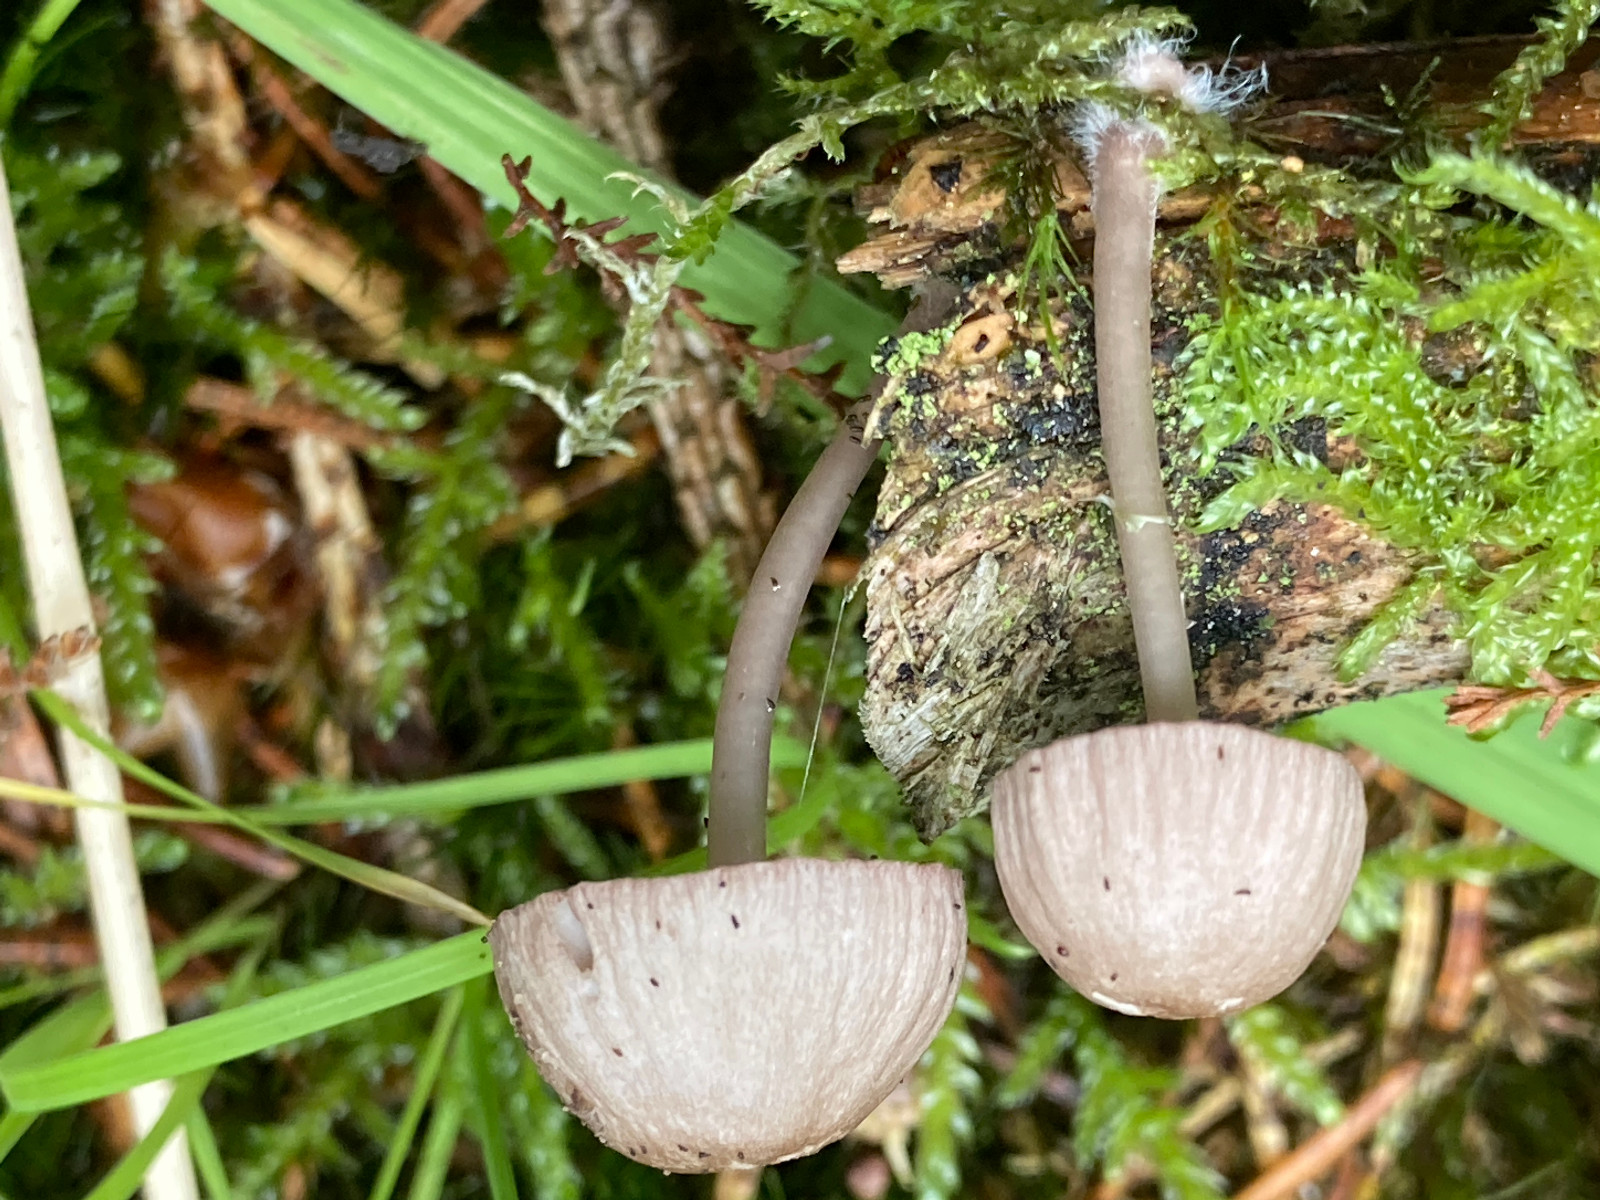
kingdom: Fungi
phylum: Basidiomycota
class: Agaricomycetes
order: Agaricales
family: Mycenaceae
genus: Mycena
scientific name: Mycena rubromarginata
